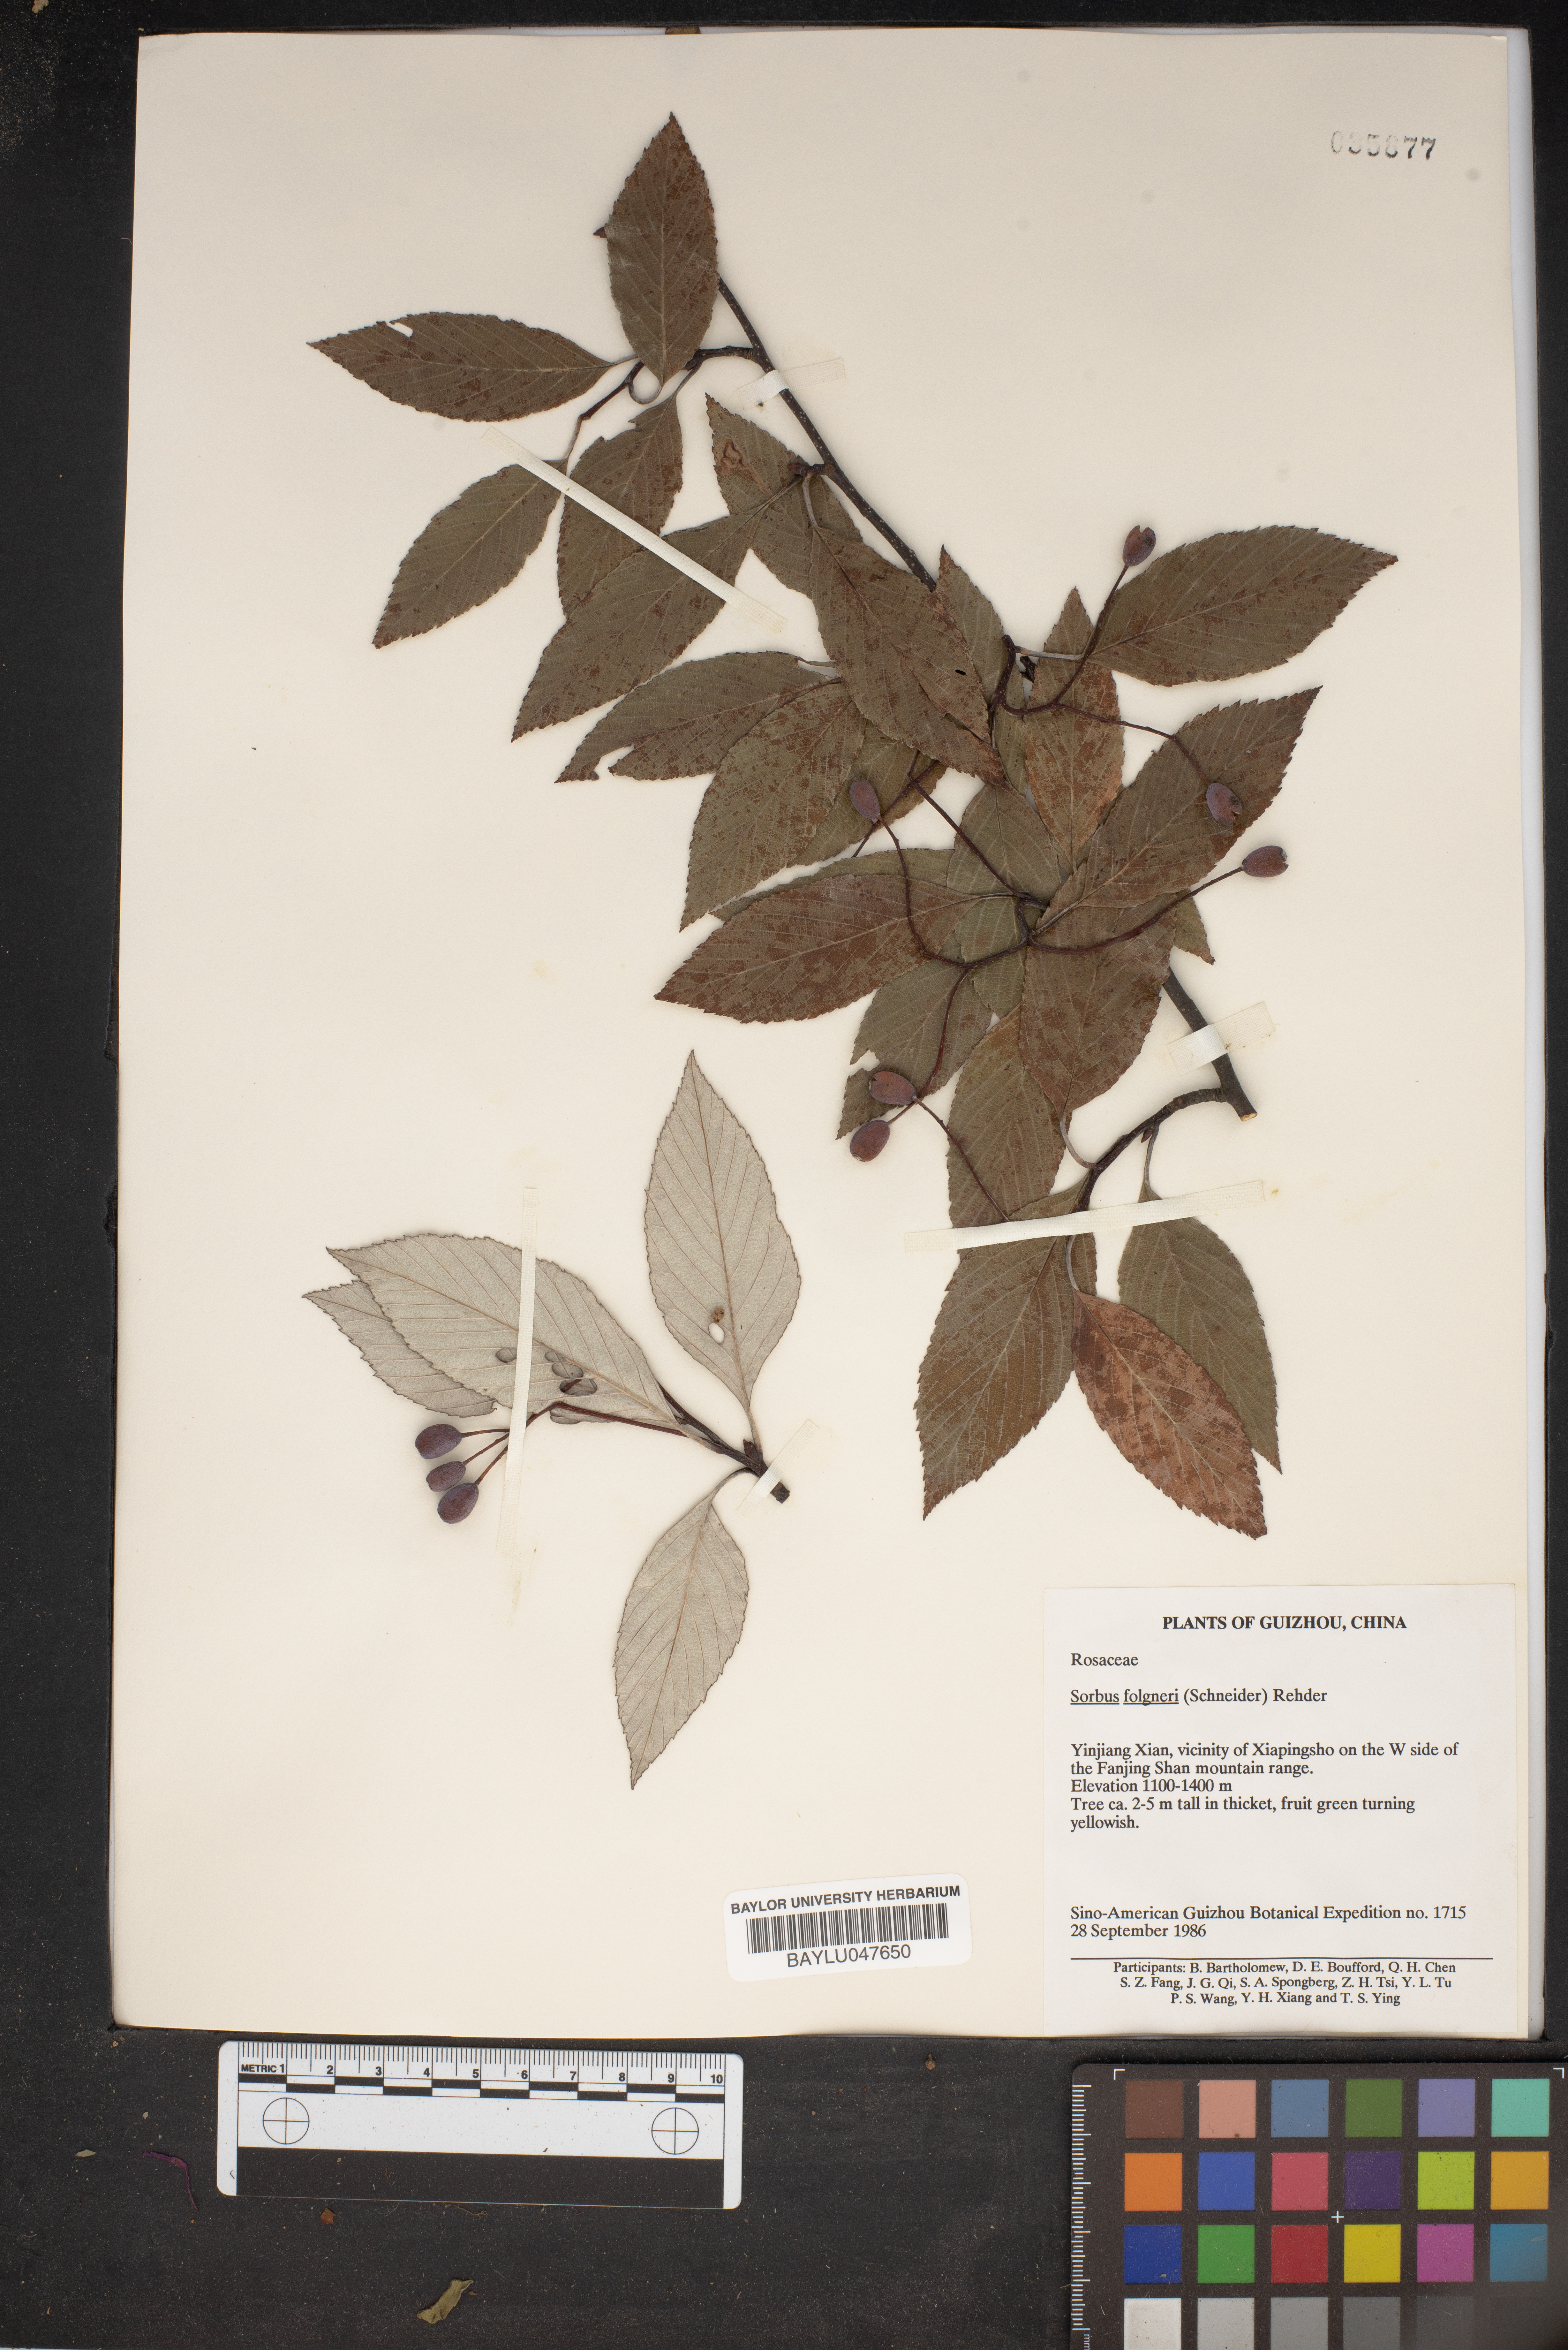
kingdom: Plantae
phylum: Tracheophyta
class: Magnoliopsida
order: Rosales
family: Rosaceae
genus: Sorbus
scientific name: Sorbus folgneri
